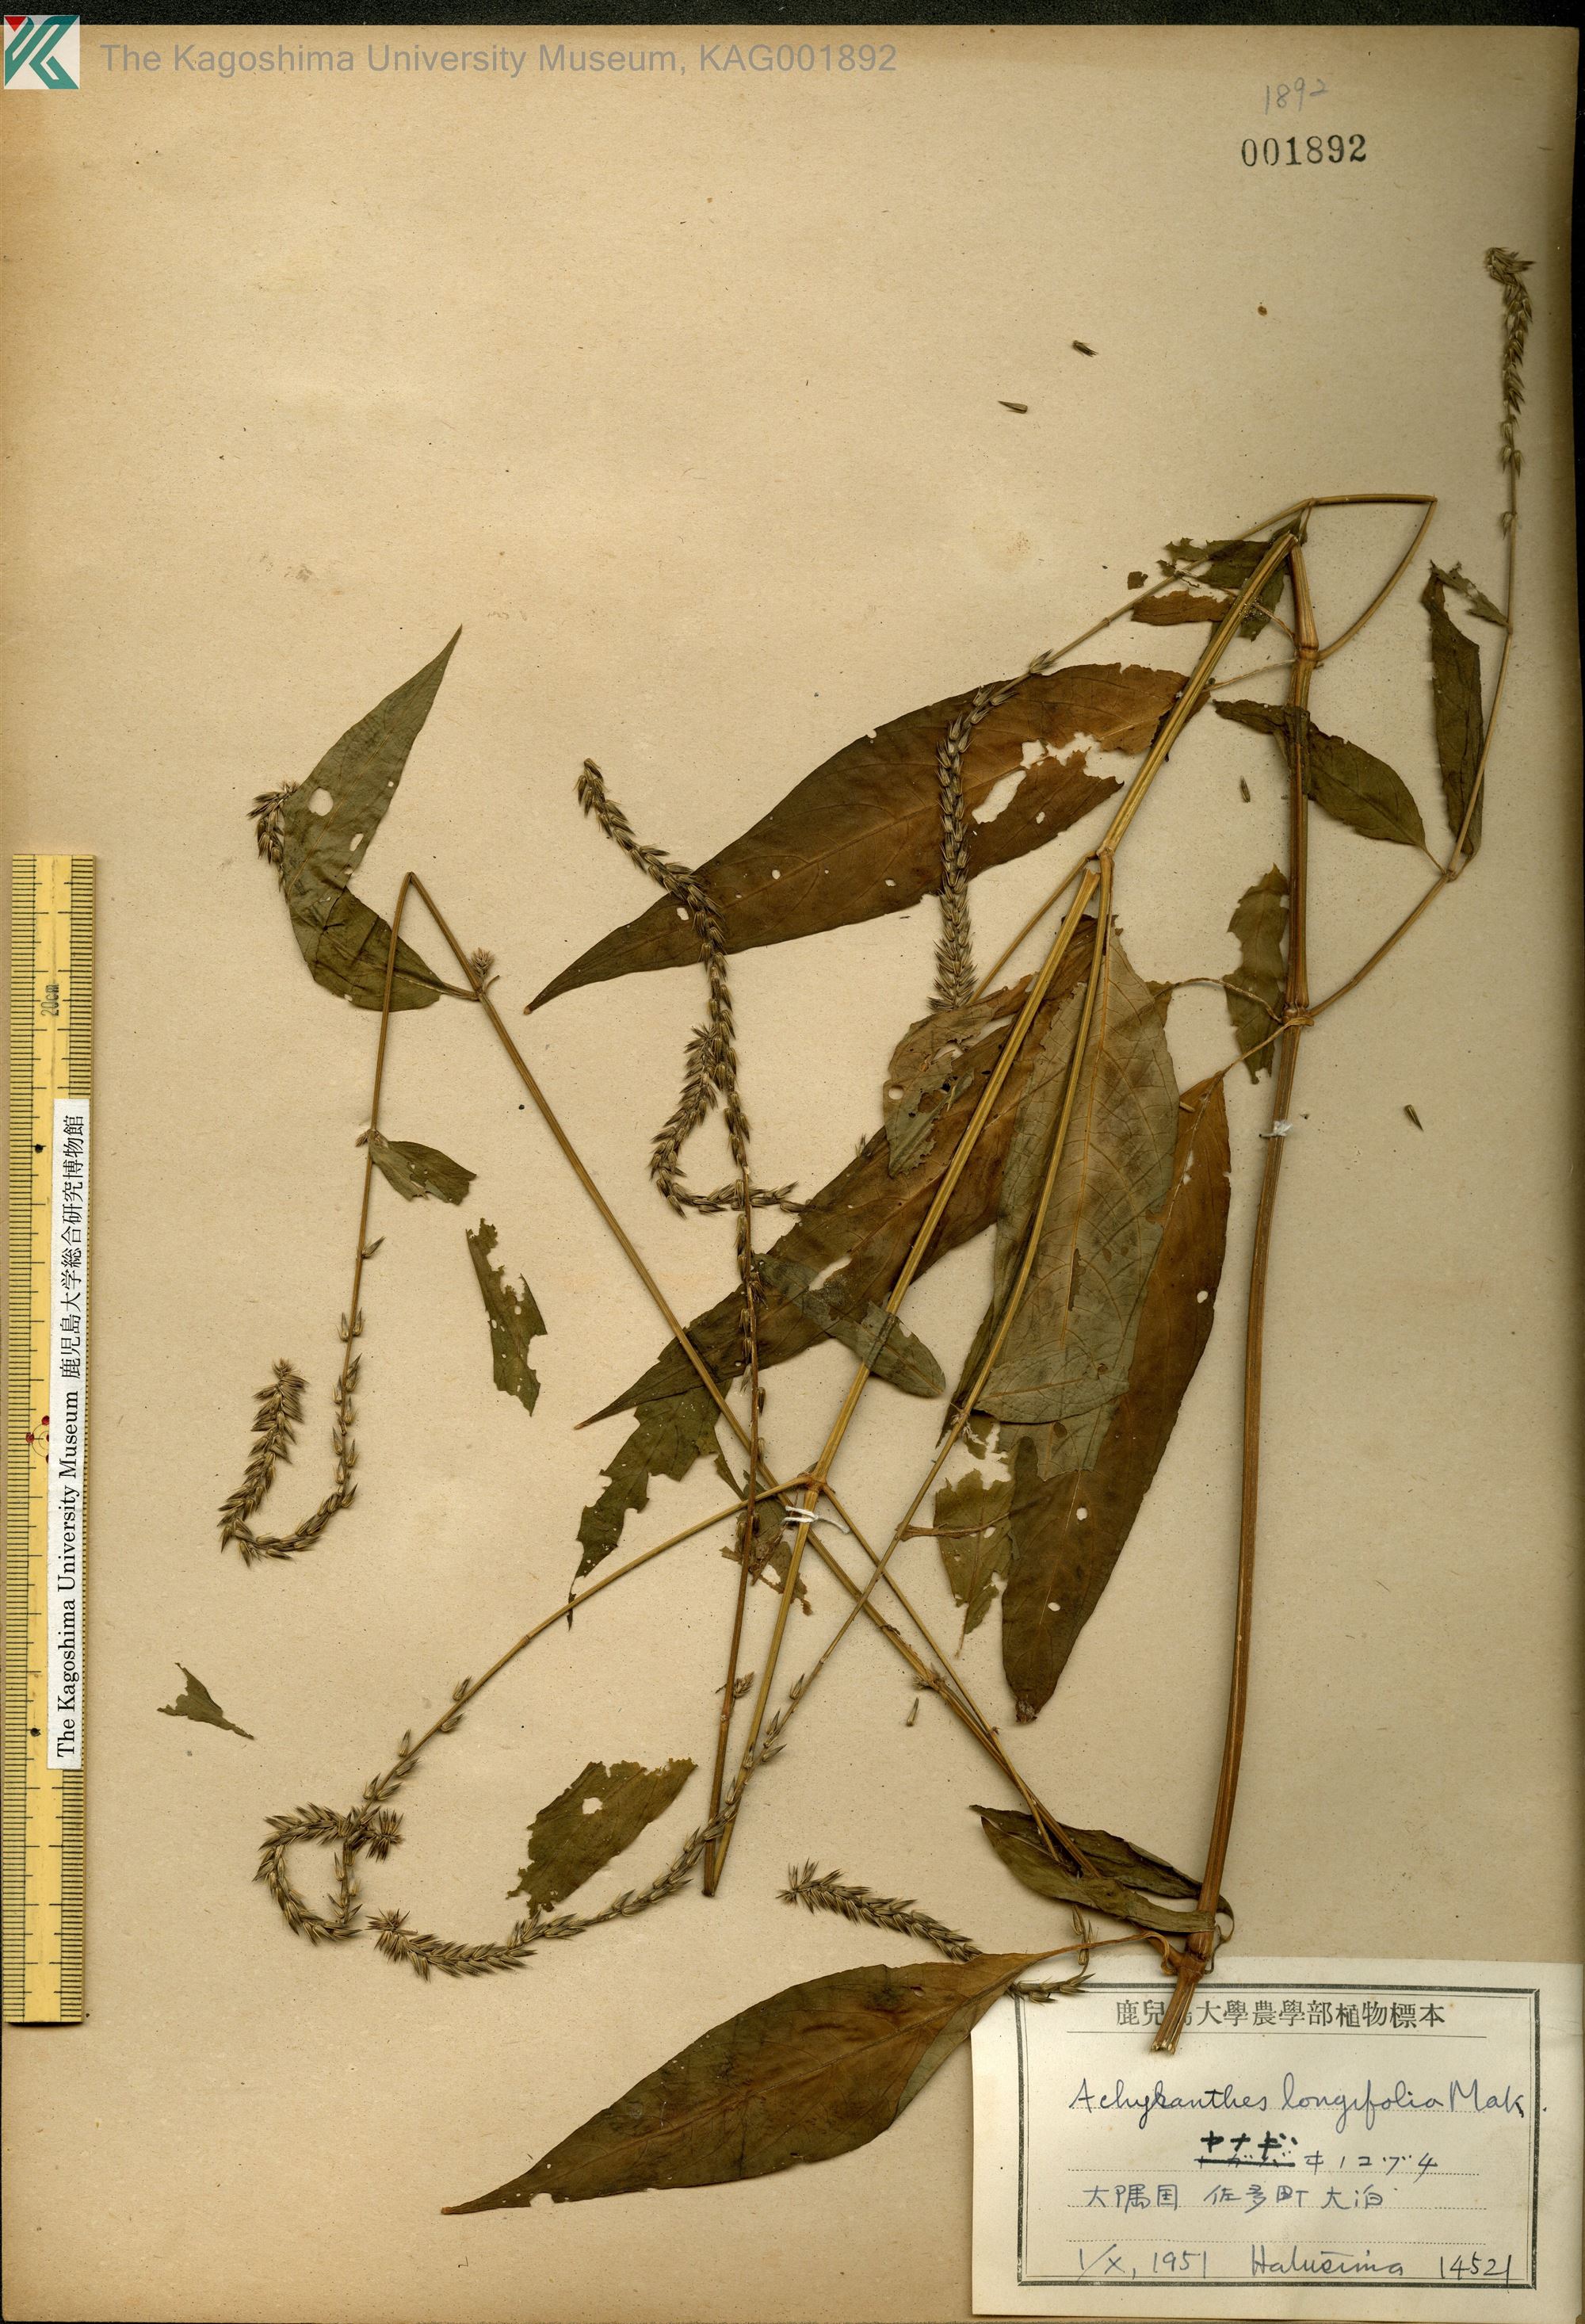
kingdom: Plantae
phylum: Tracheophyta
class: Magnoliopsida
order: Caryophyllales
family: Amaranthaceae
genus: Achyranthes
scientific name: Achyranthes bidentata
